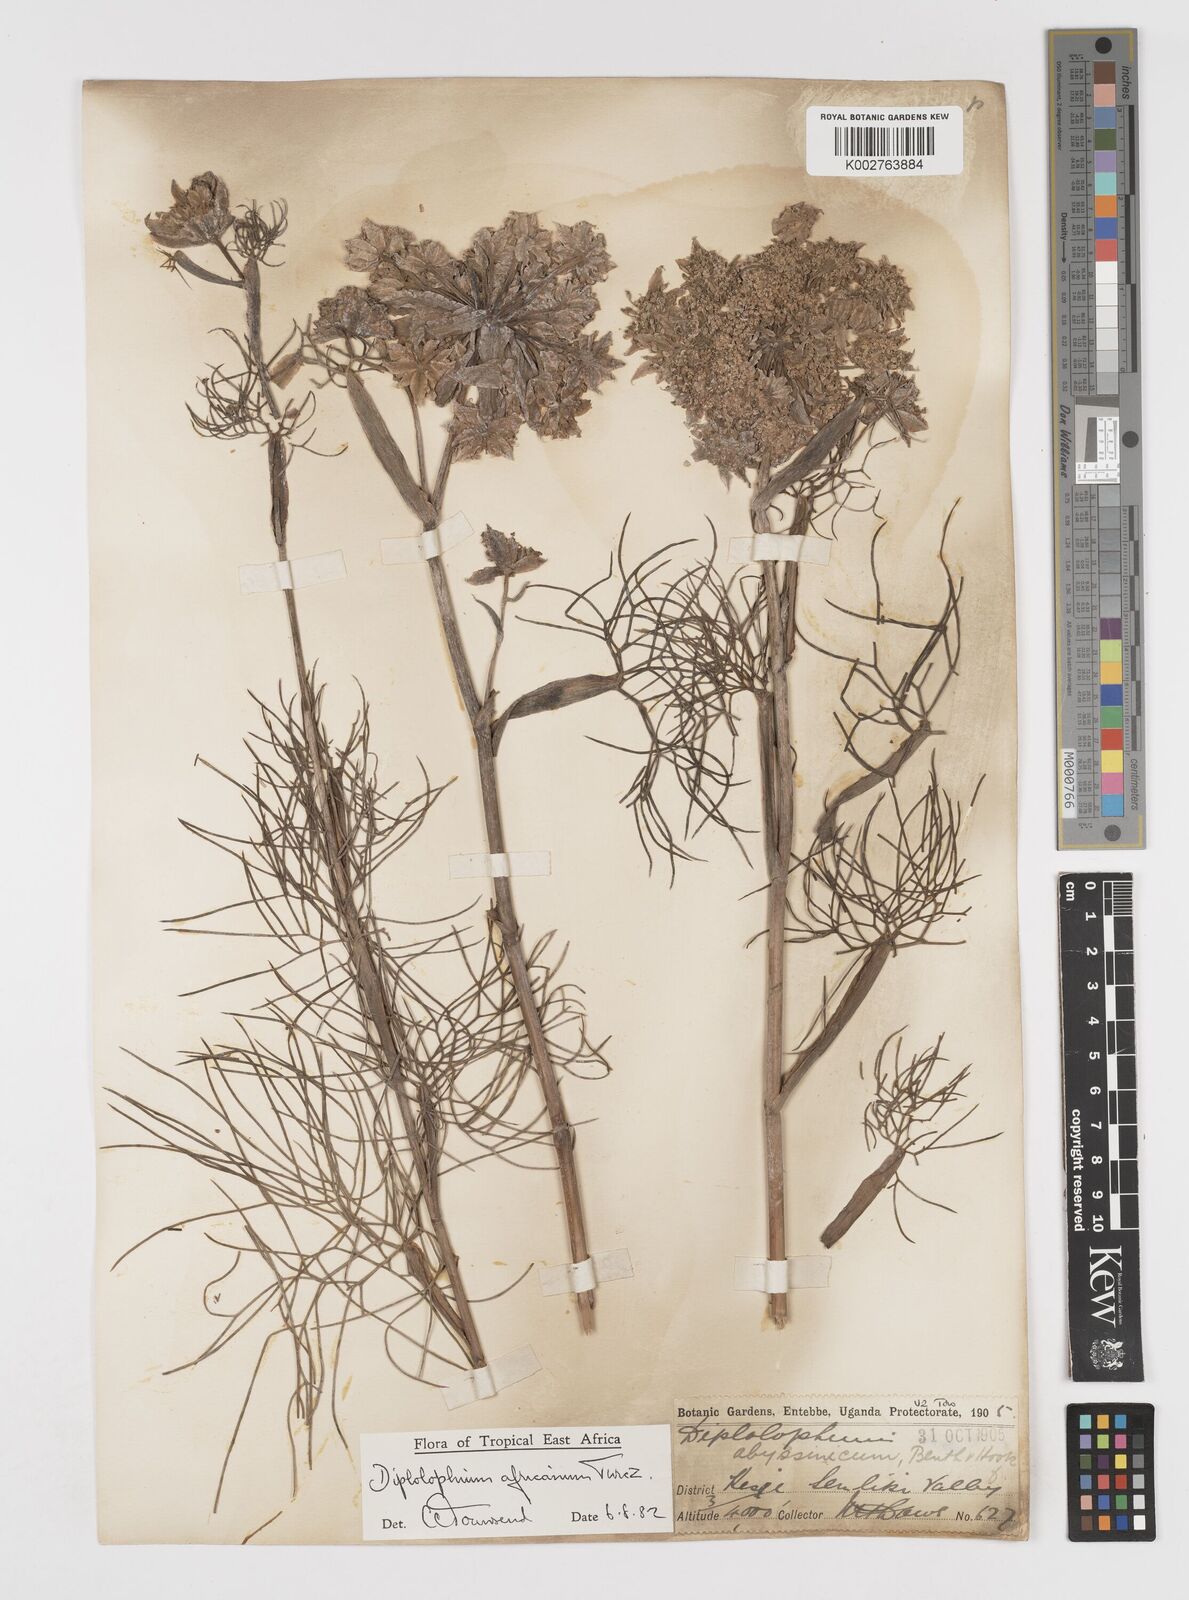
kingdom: Plantae
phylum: Tracheophyta
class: Magnoliopsida
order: Apiales
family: Apiaceae
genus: Diplolophium
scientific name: Diplolophium africanum
